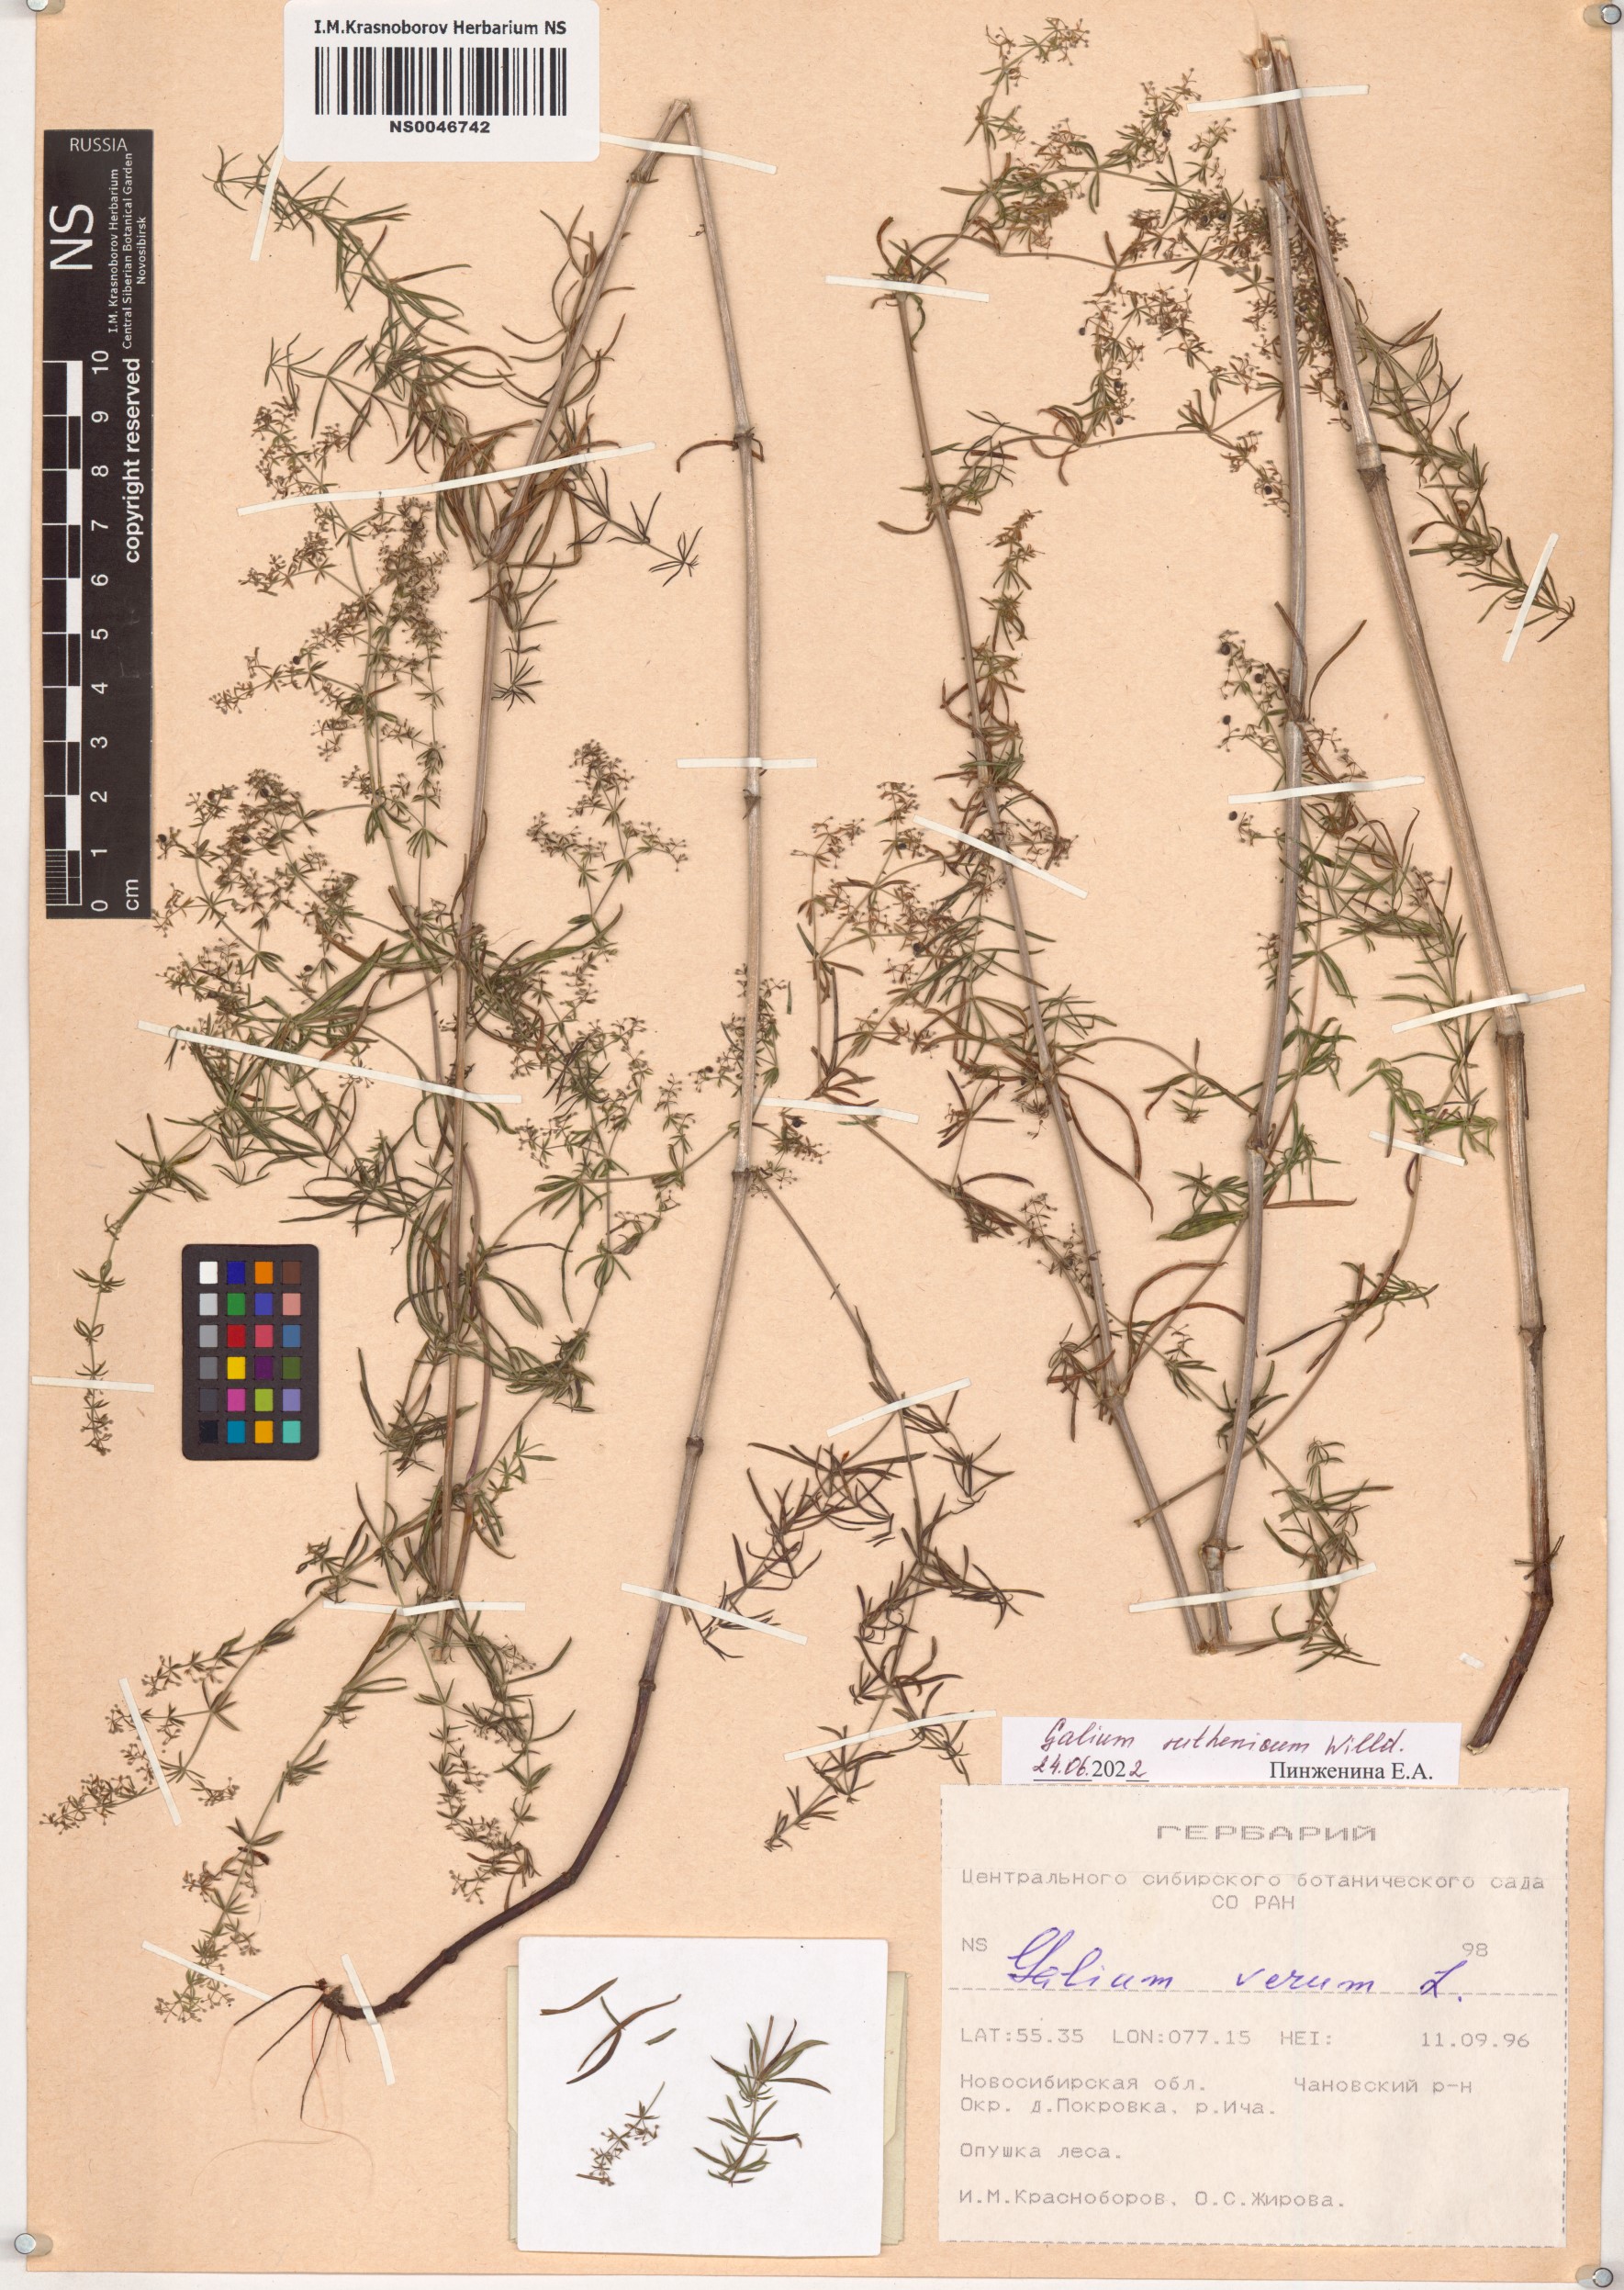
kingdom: Plantae
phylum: Tracheophyta
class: Magnoliopsida
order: Gentianales
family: Rubiaceae
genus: Galium
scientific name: Galium verum
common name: Lady's bedstraw
